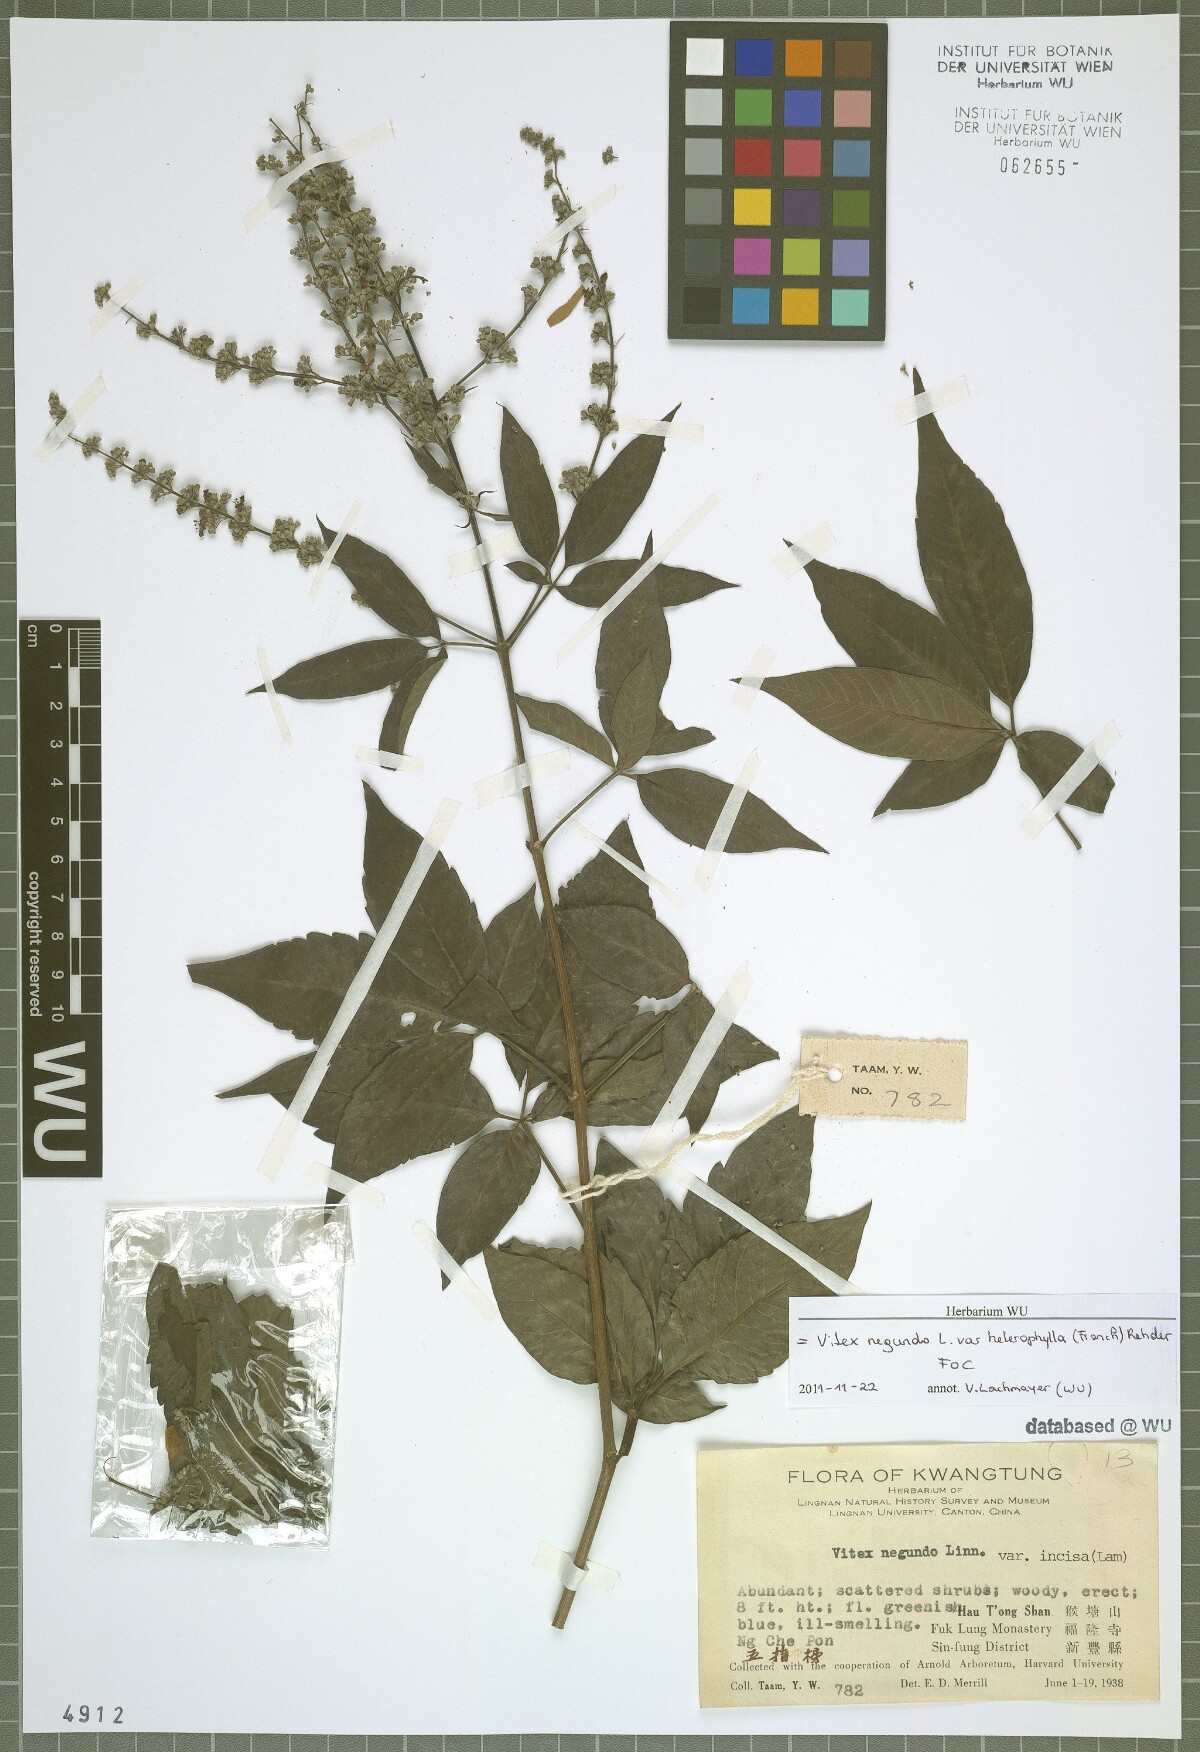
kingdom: Plantae
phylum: Tracheophyta
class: Magnoliopsida
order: Lamiales
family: Lamiaceae
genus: Vitex
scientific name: Vitex negundo
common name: Chinese chastetree
